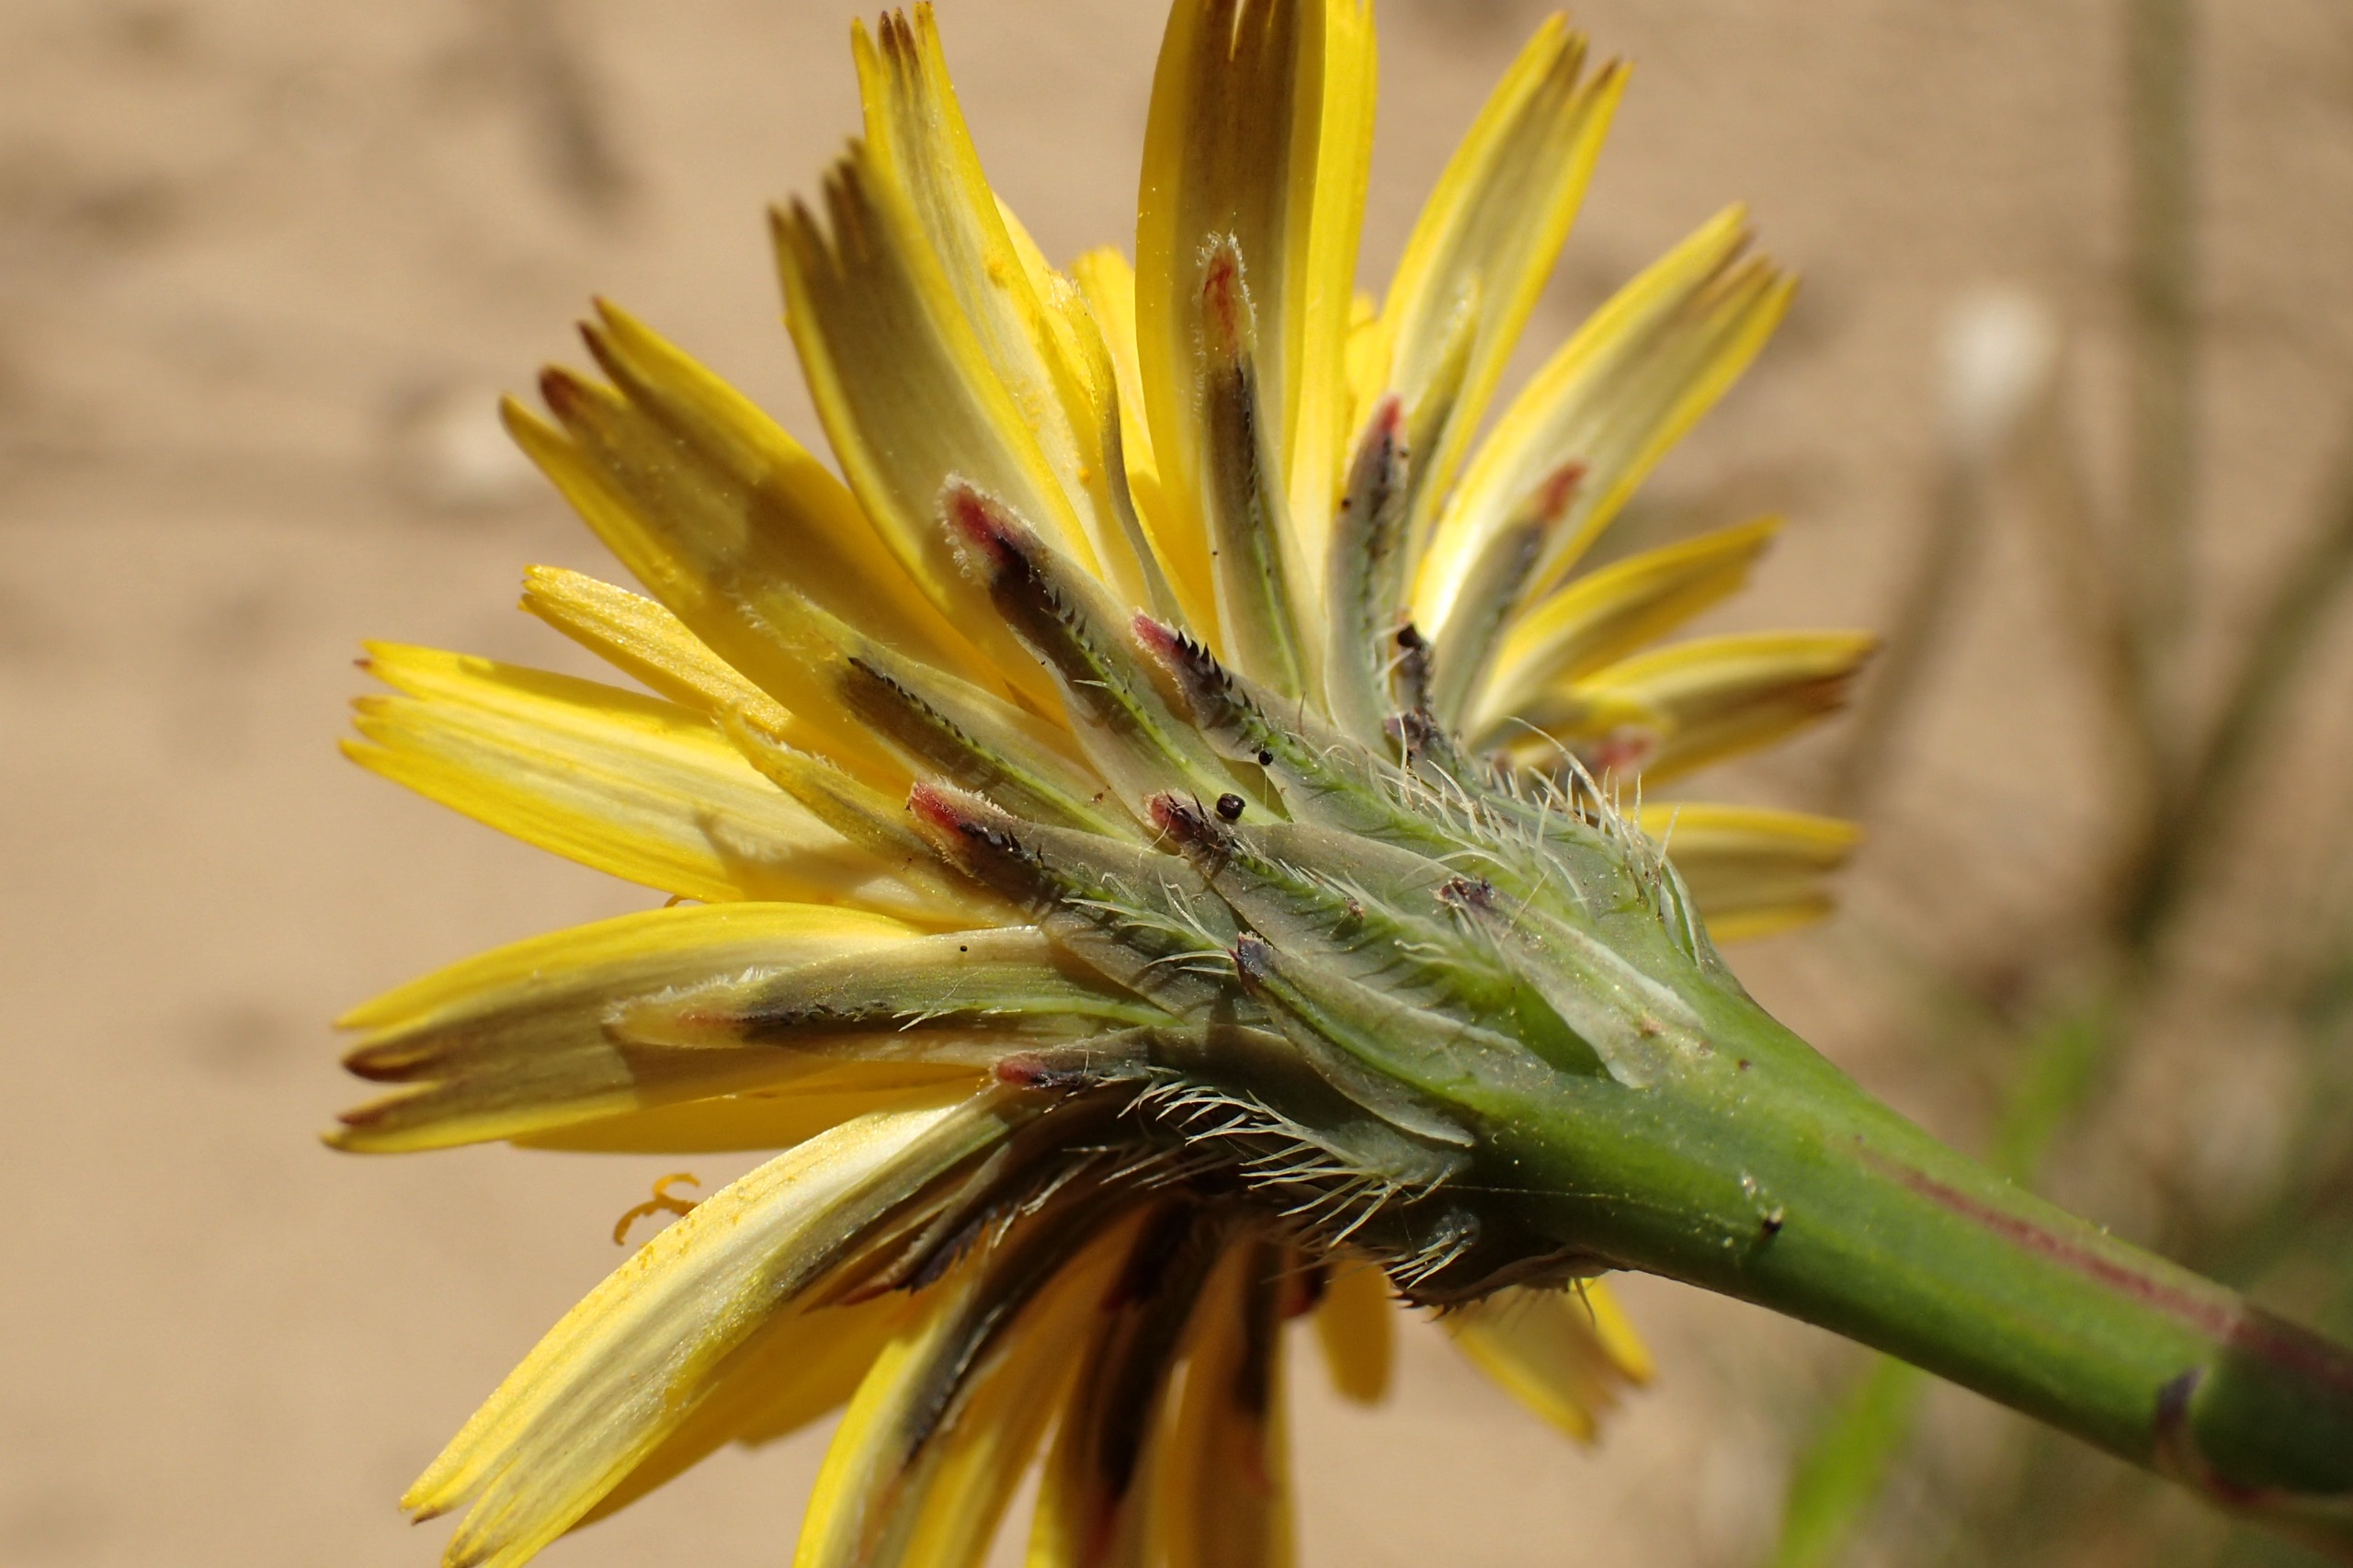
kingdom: Plantae
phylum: Tracheophyta
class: Magnoliopsida
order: Asterales
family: Asteraceae
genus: Hypochaeris
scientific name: Hypochaeris radicata
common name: Almindelig kongepen
